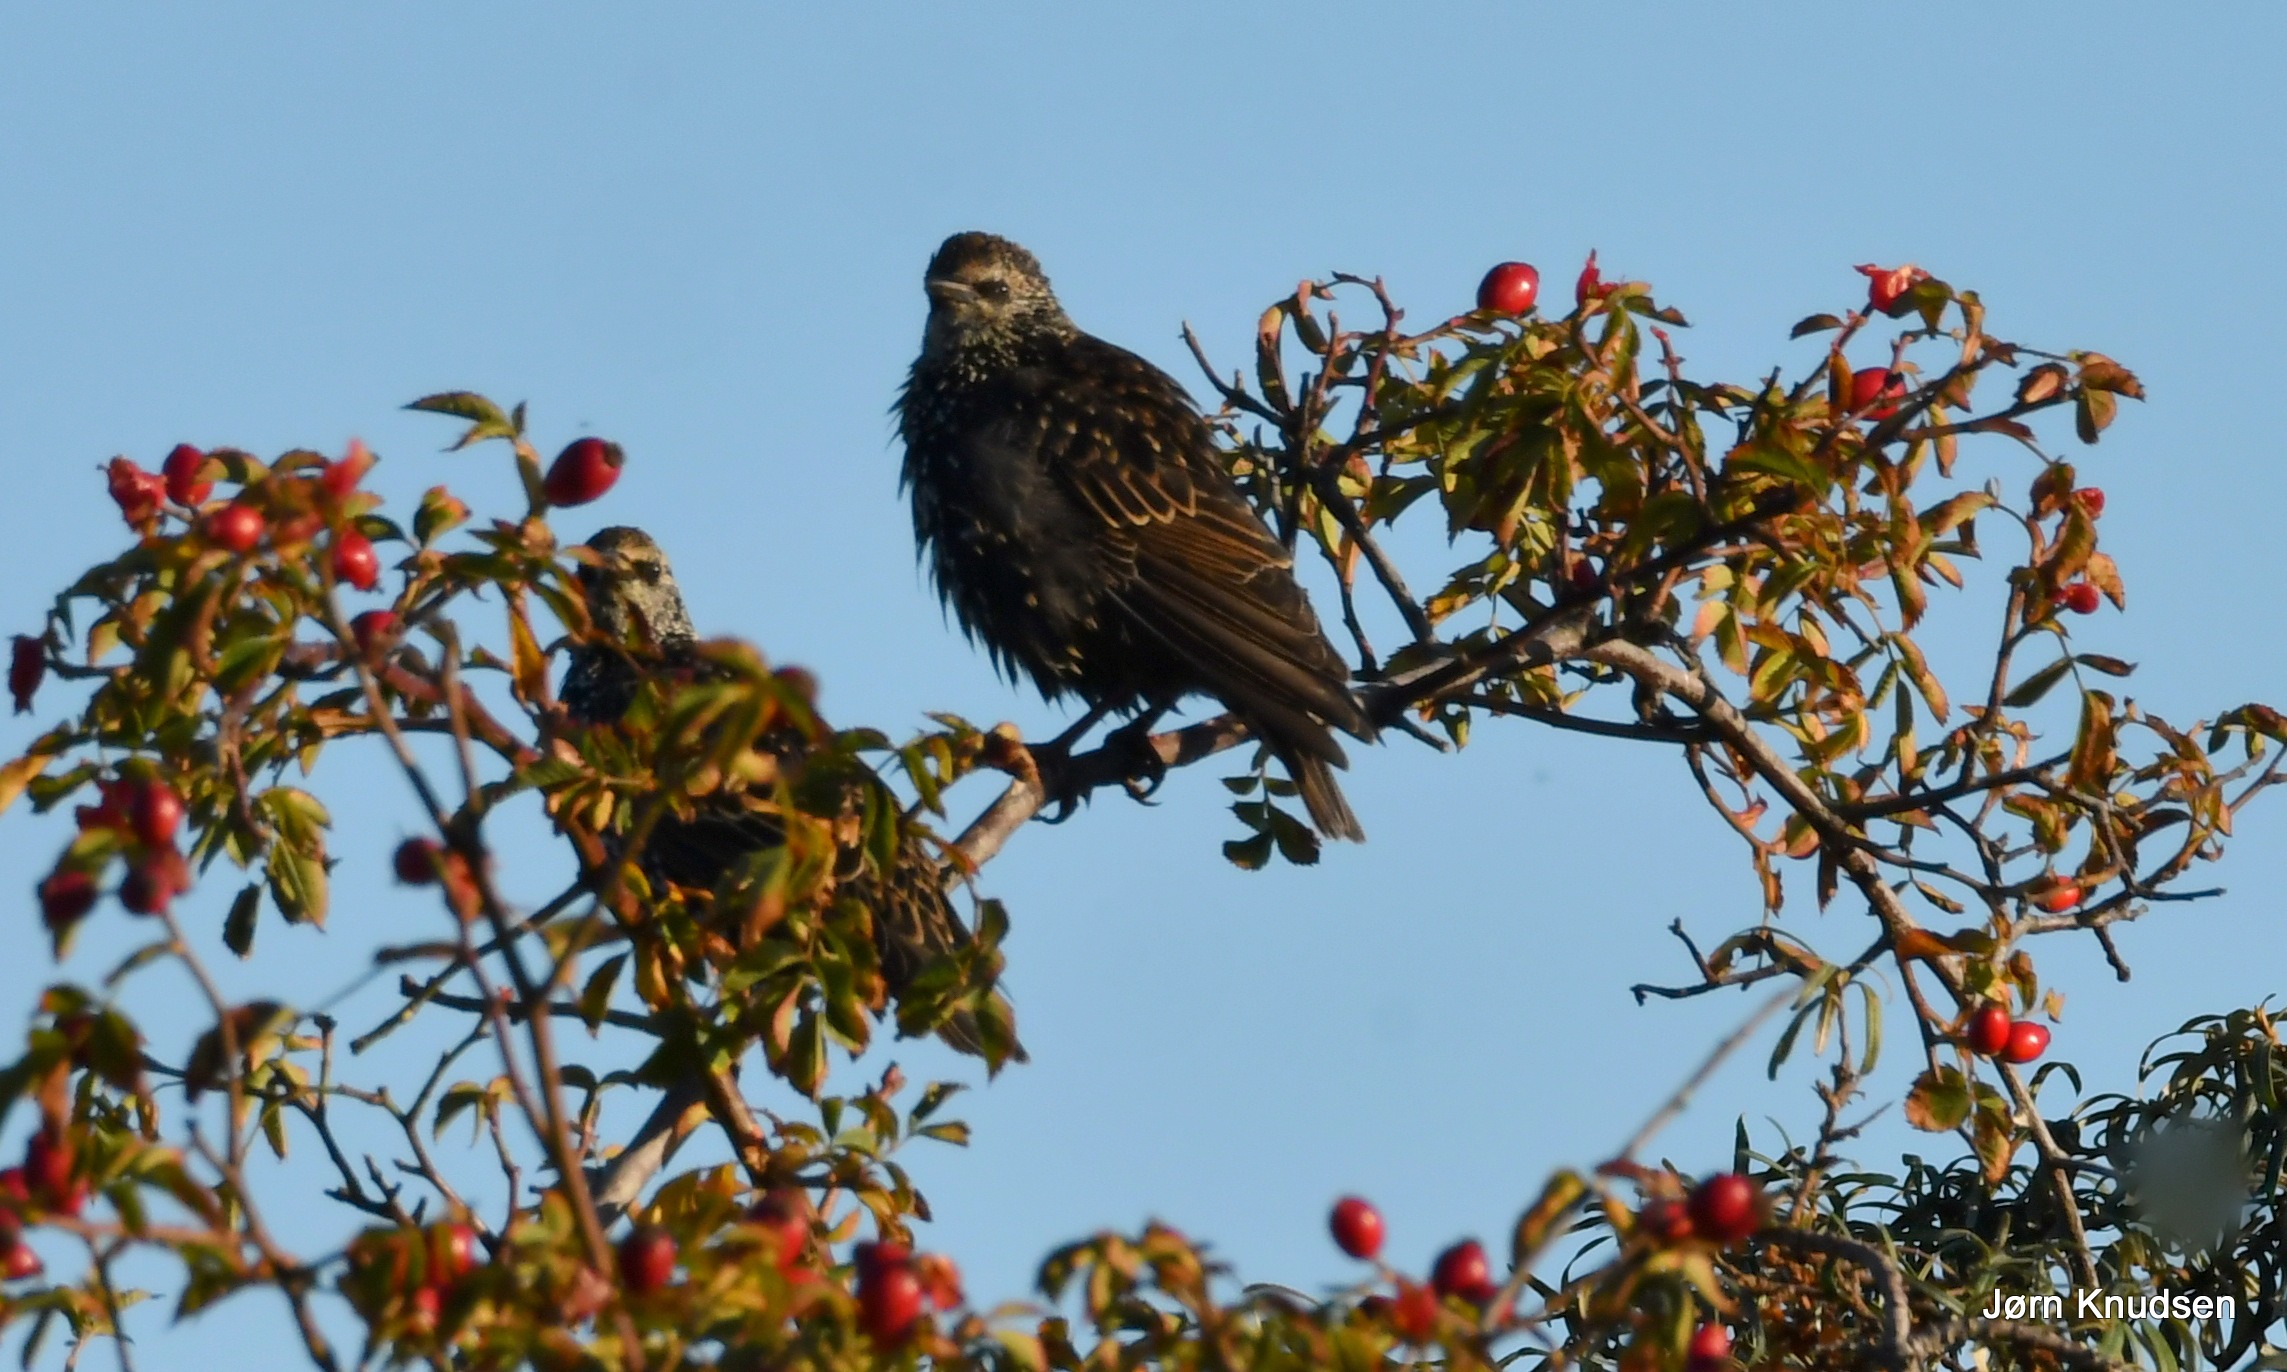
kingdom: Animalia
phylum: Chordata
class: Aves
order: Passeriformes
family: Sturnidae
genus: Sturnus
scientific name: Sturnus vulgaris
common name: Stær
